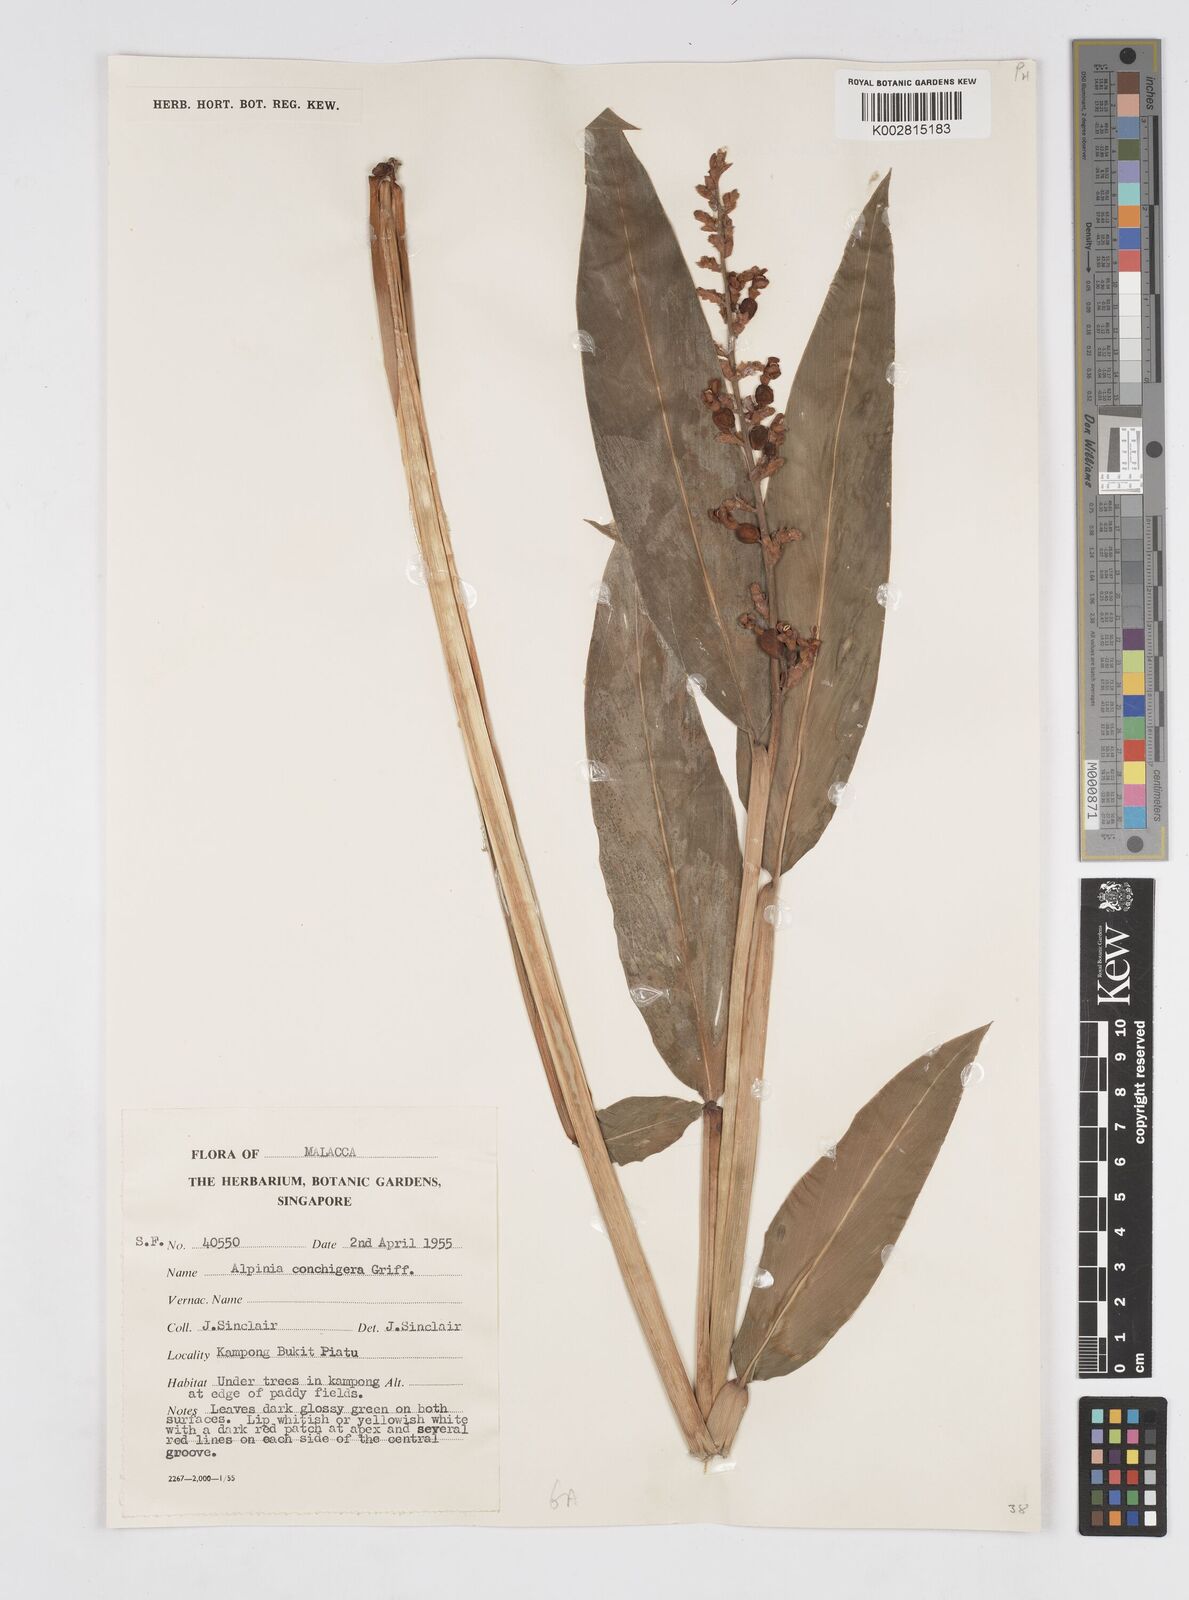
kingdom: Plantae
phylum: Tracheophyta
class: Liliopsida
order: Zingiberales
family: Zingiberaceae
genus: Alpinia
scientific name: Alpinia conchigera
